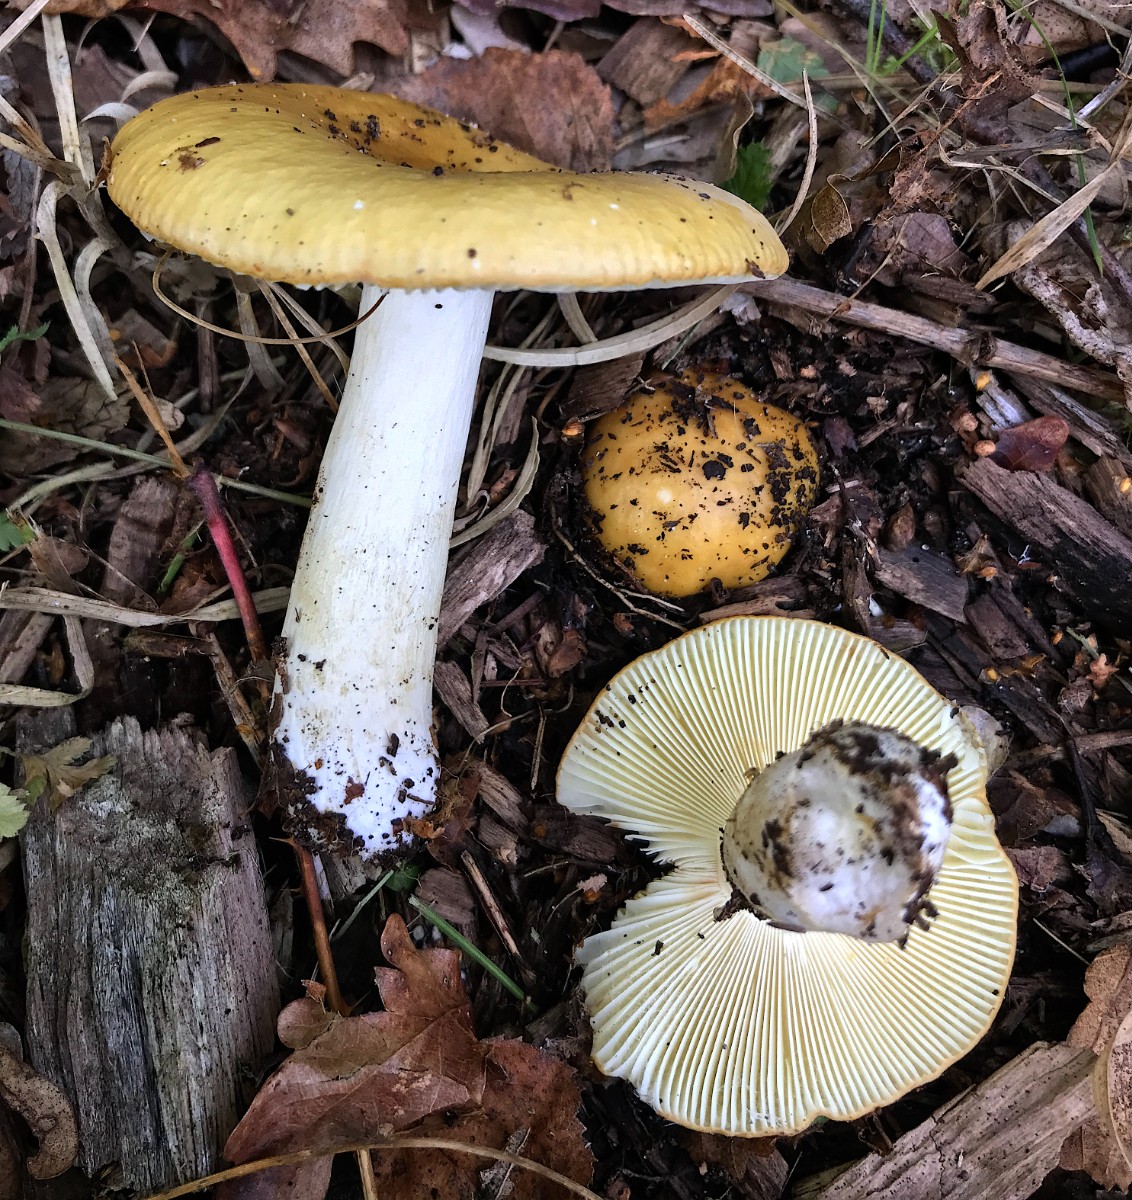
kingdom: Fungi
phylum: Basidiomycota
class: Agaricomycetes
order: Russulales
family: Russulaceae
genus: Russula
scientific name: Russula claroflava
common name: birke-skørhat
